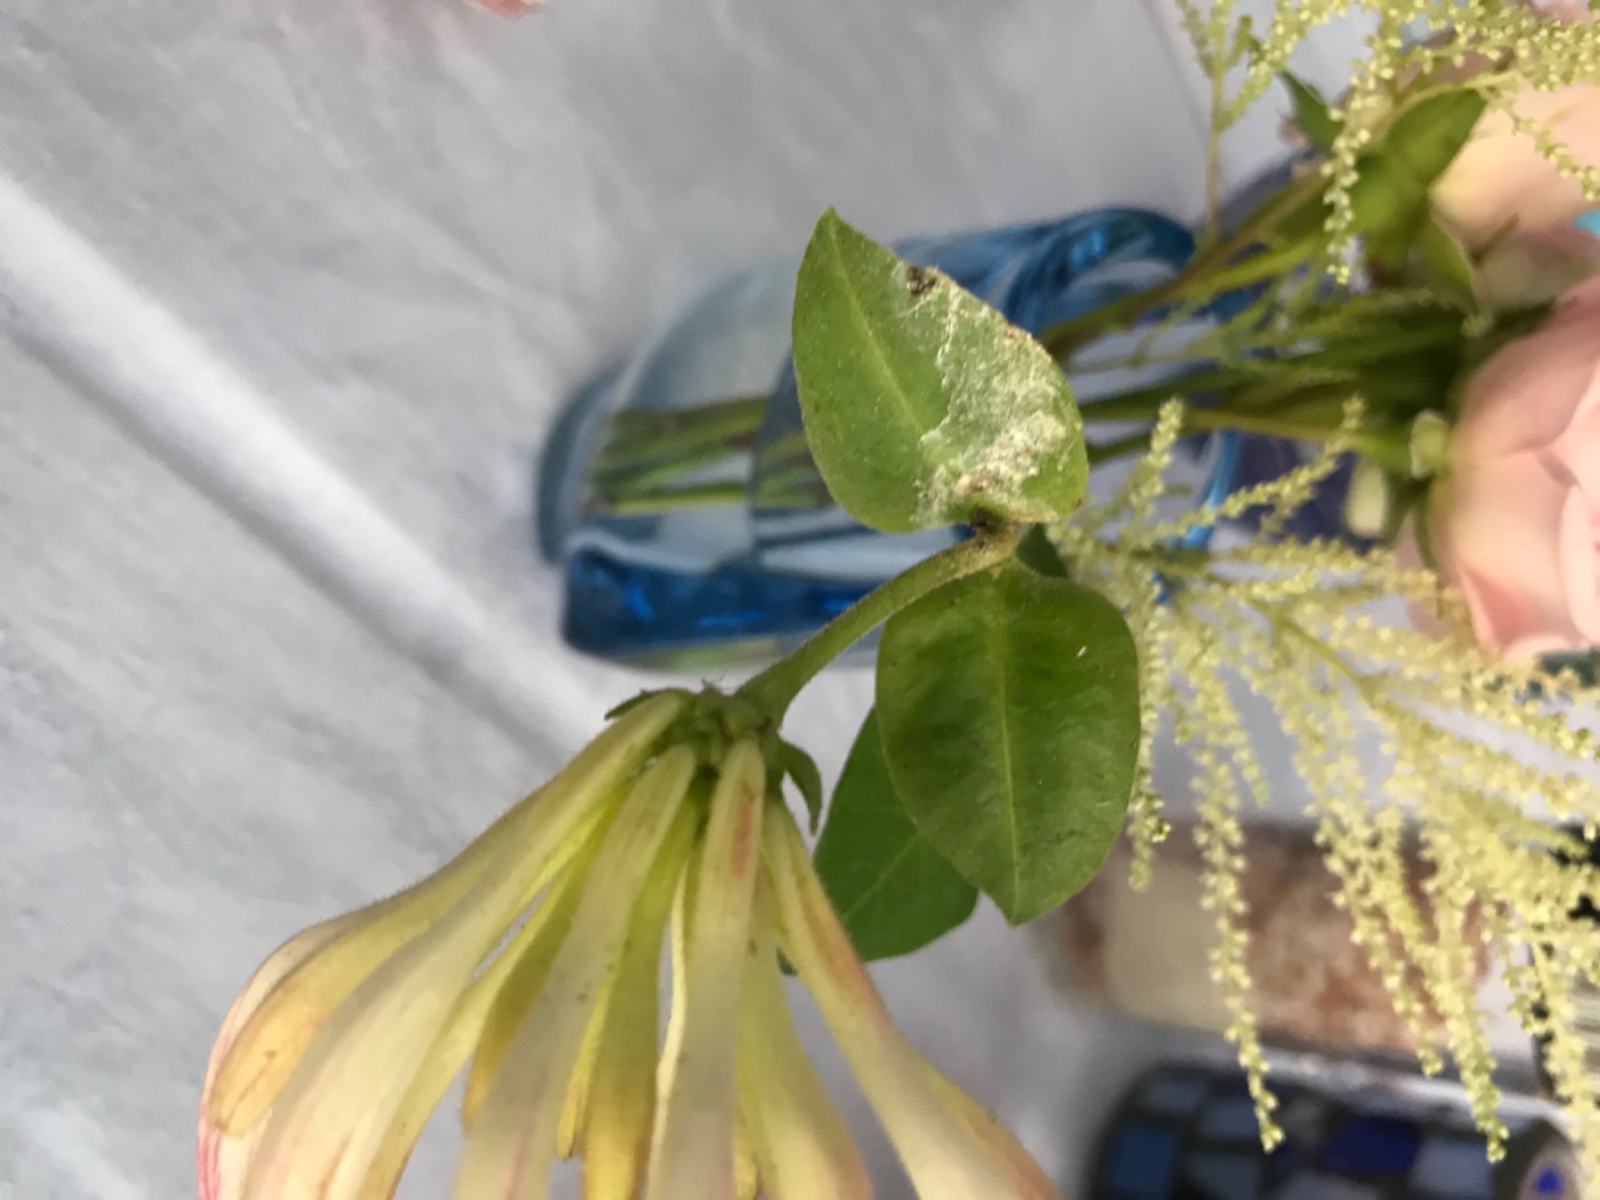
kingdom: Fungi
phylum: Ascomycota
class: Leotiomycetes
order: Helotiales
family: Erysiphaceae
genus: Erysiphe
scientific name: Erysiphe lonicerae
